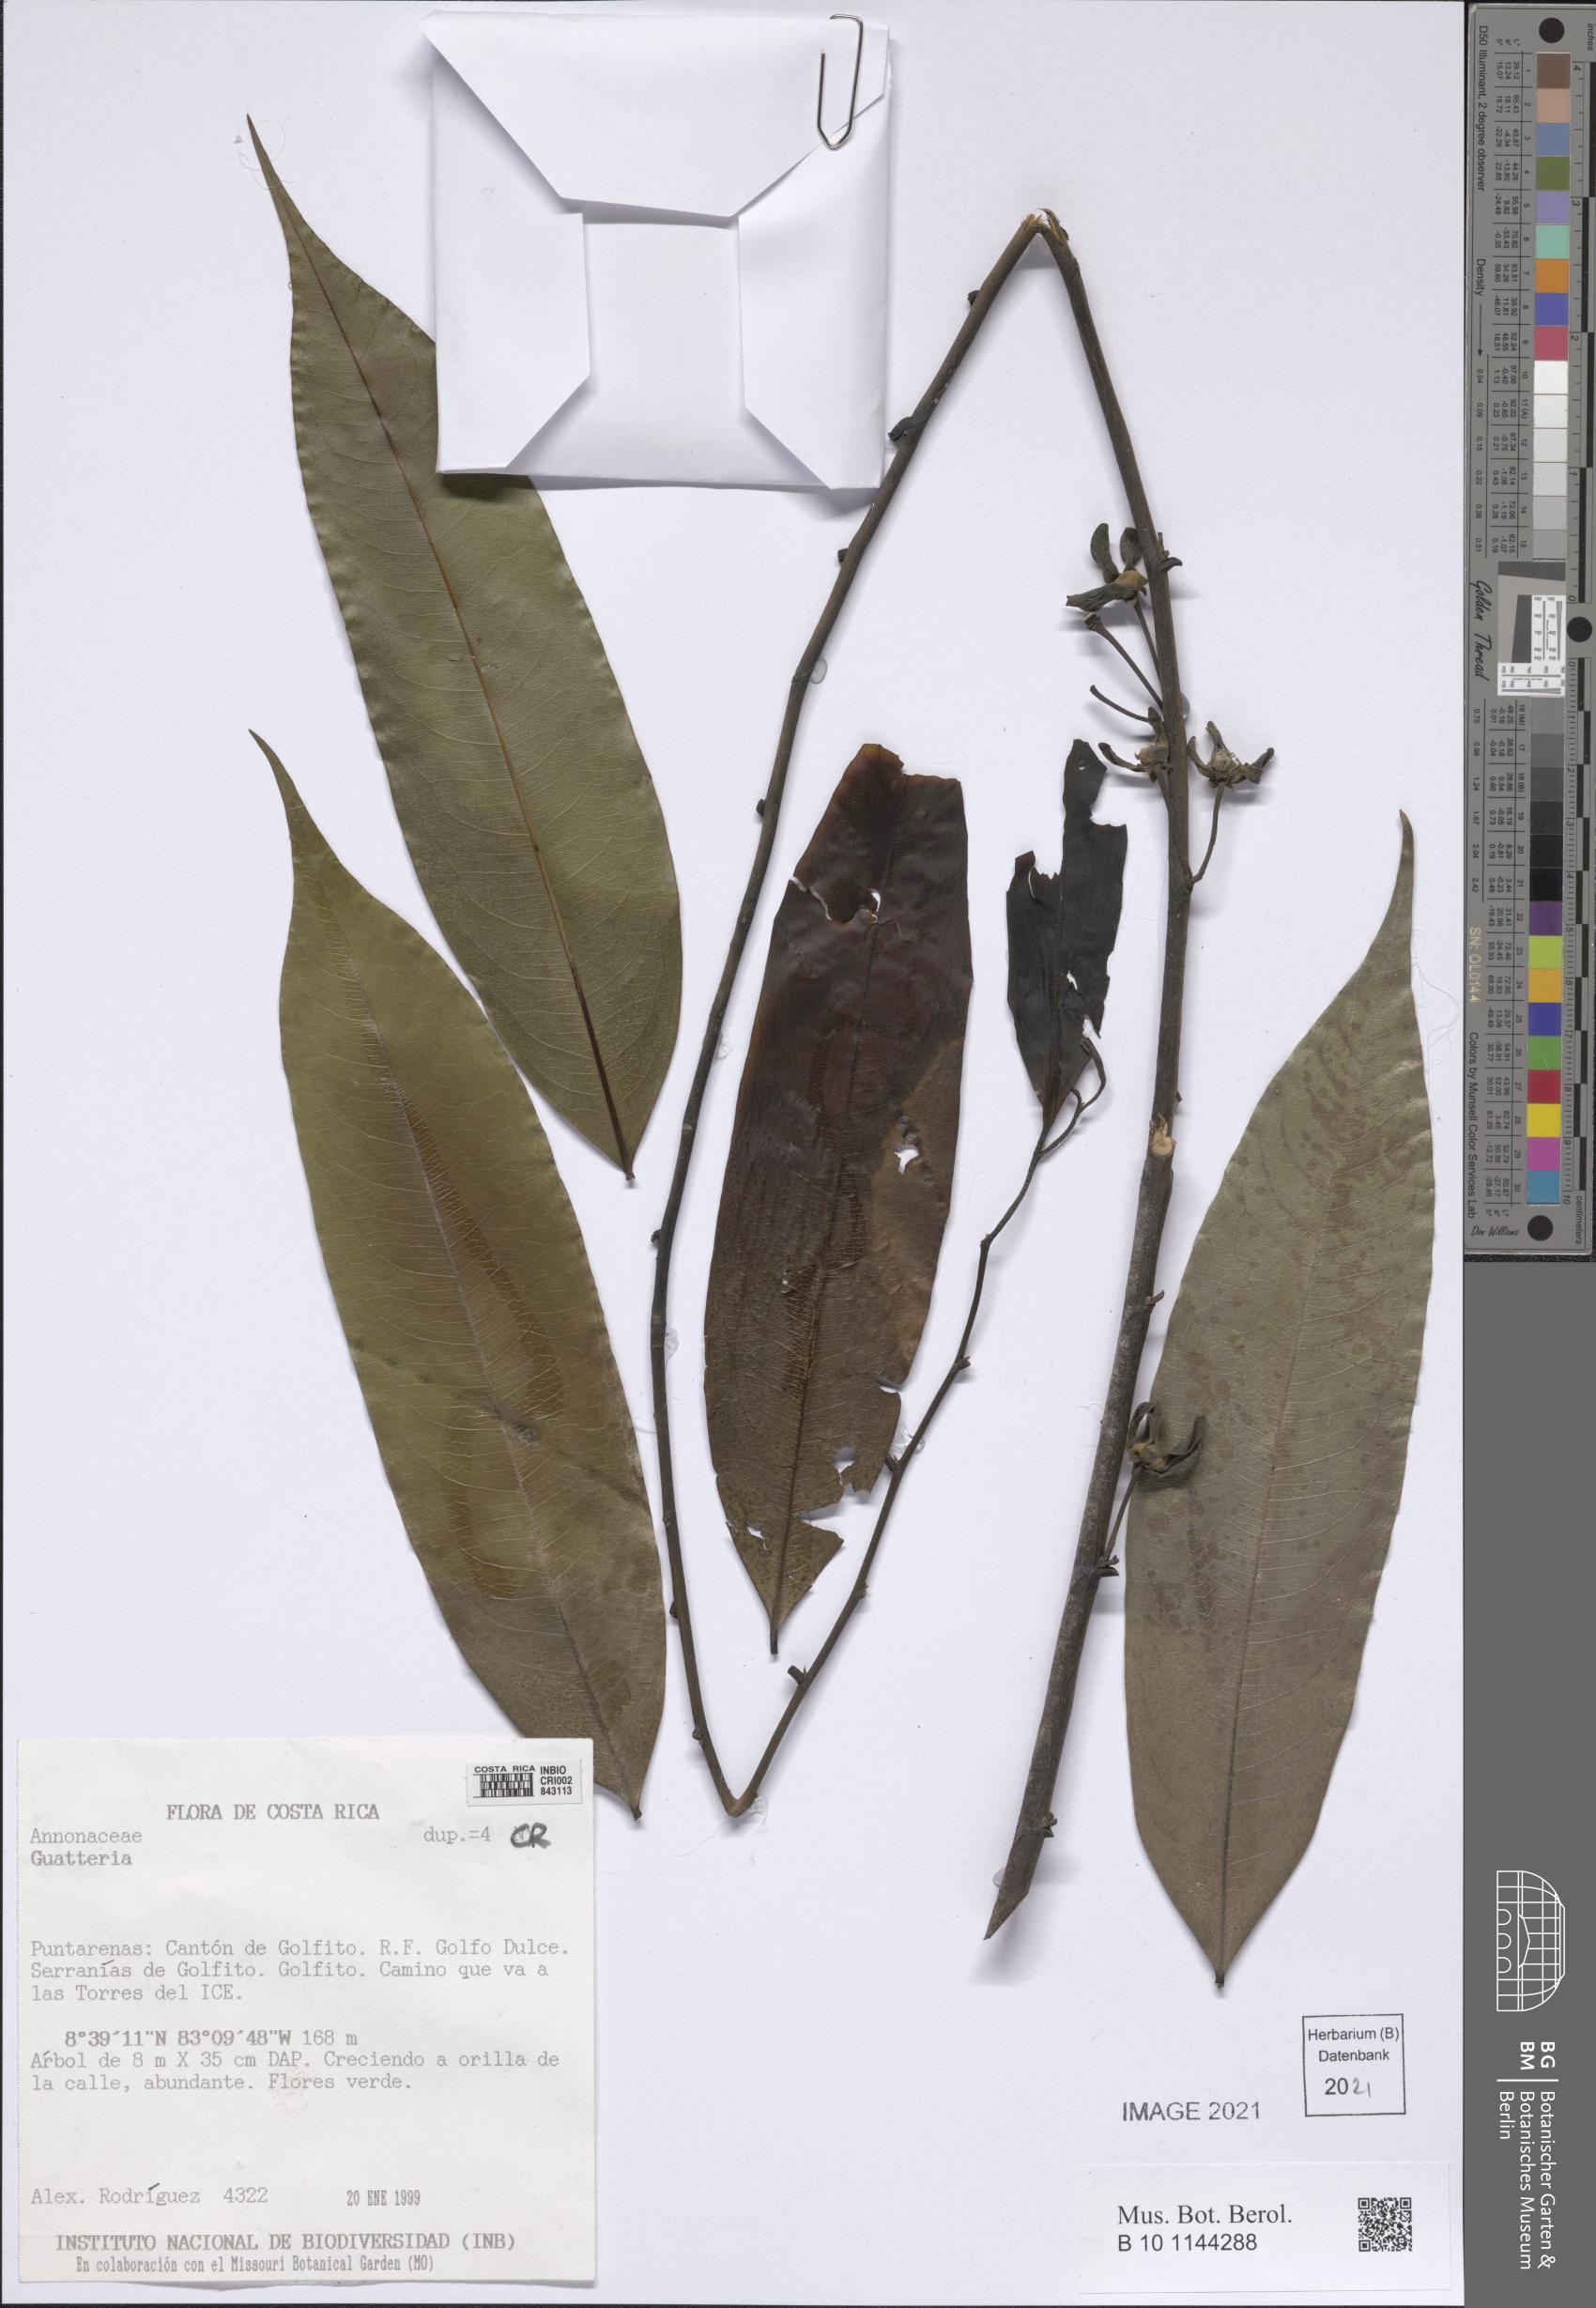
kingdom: Plantae
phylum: Tracheophyta
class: Magnoliopsida
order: Magnoliales
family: Annonaceae
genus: Guatteria
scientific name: Guatteria lucens
